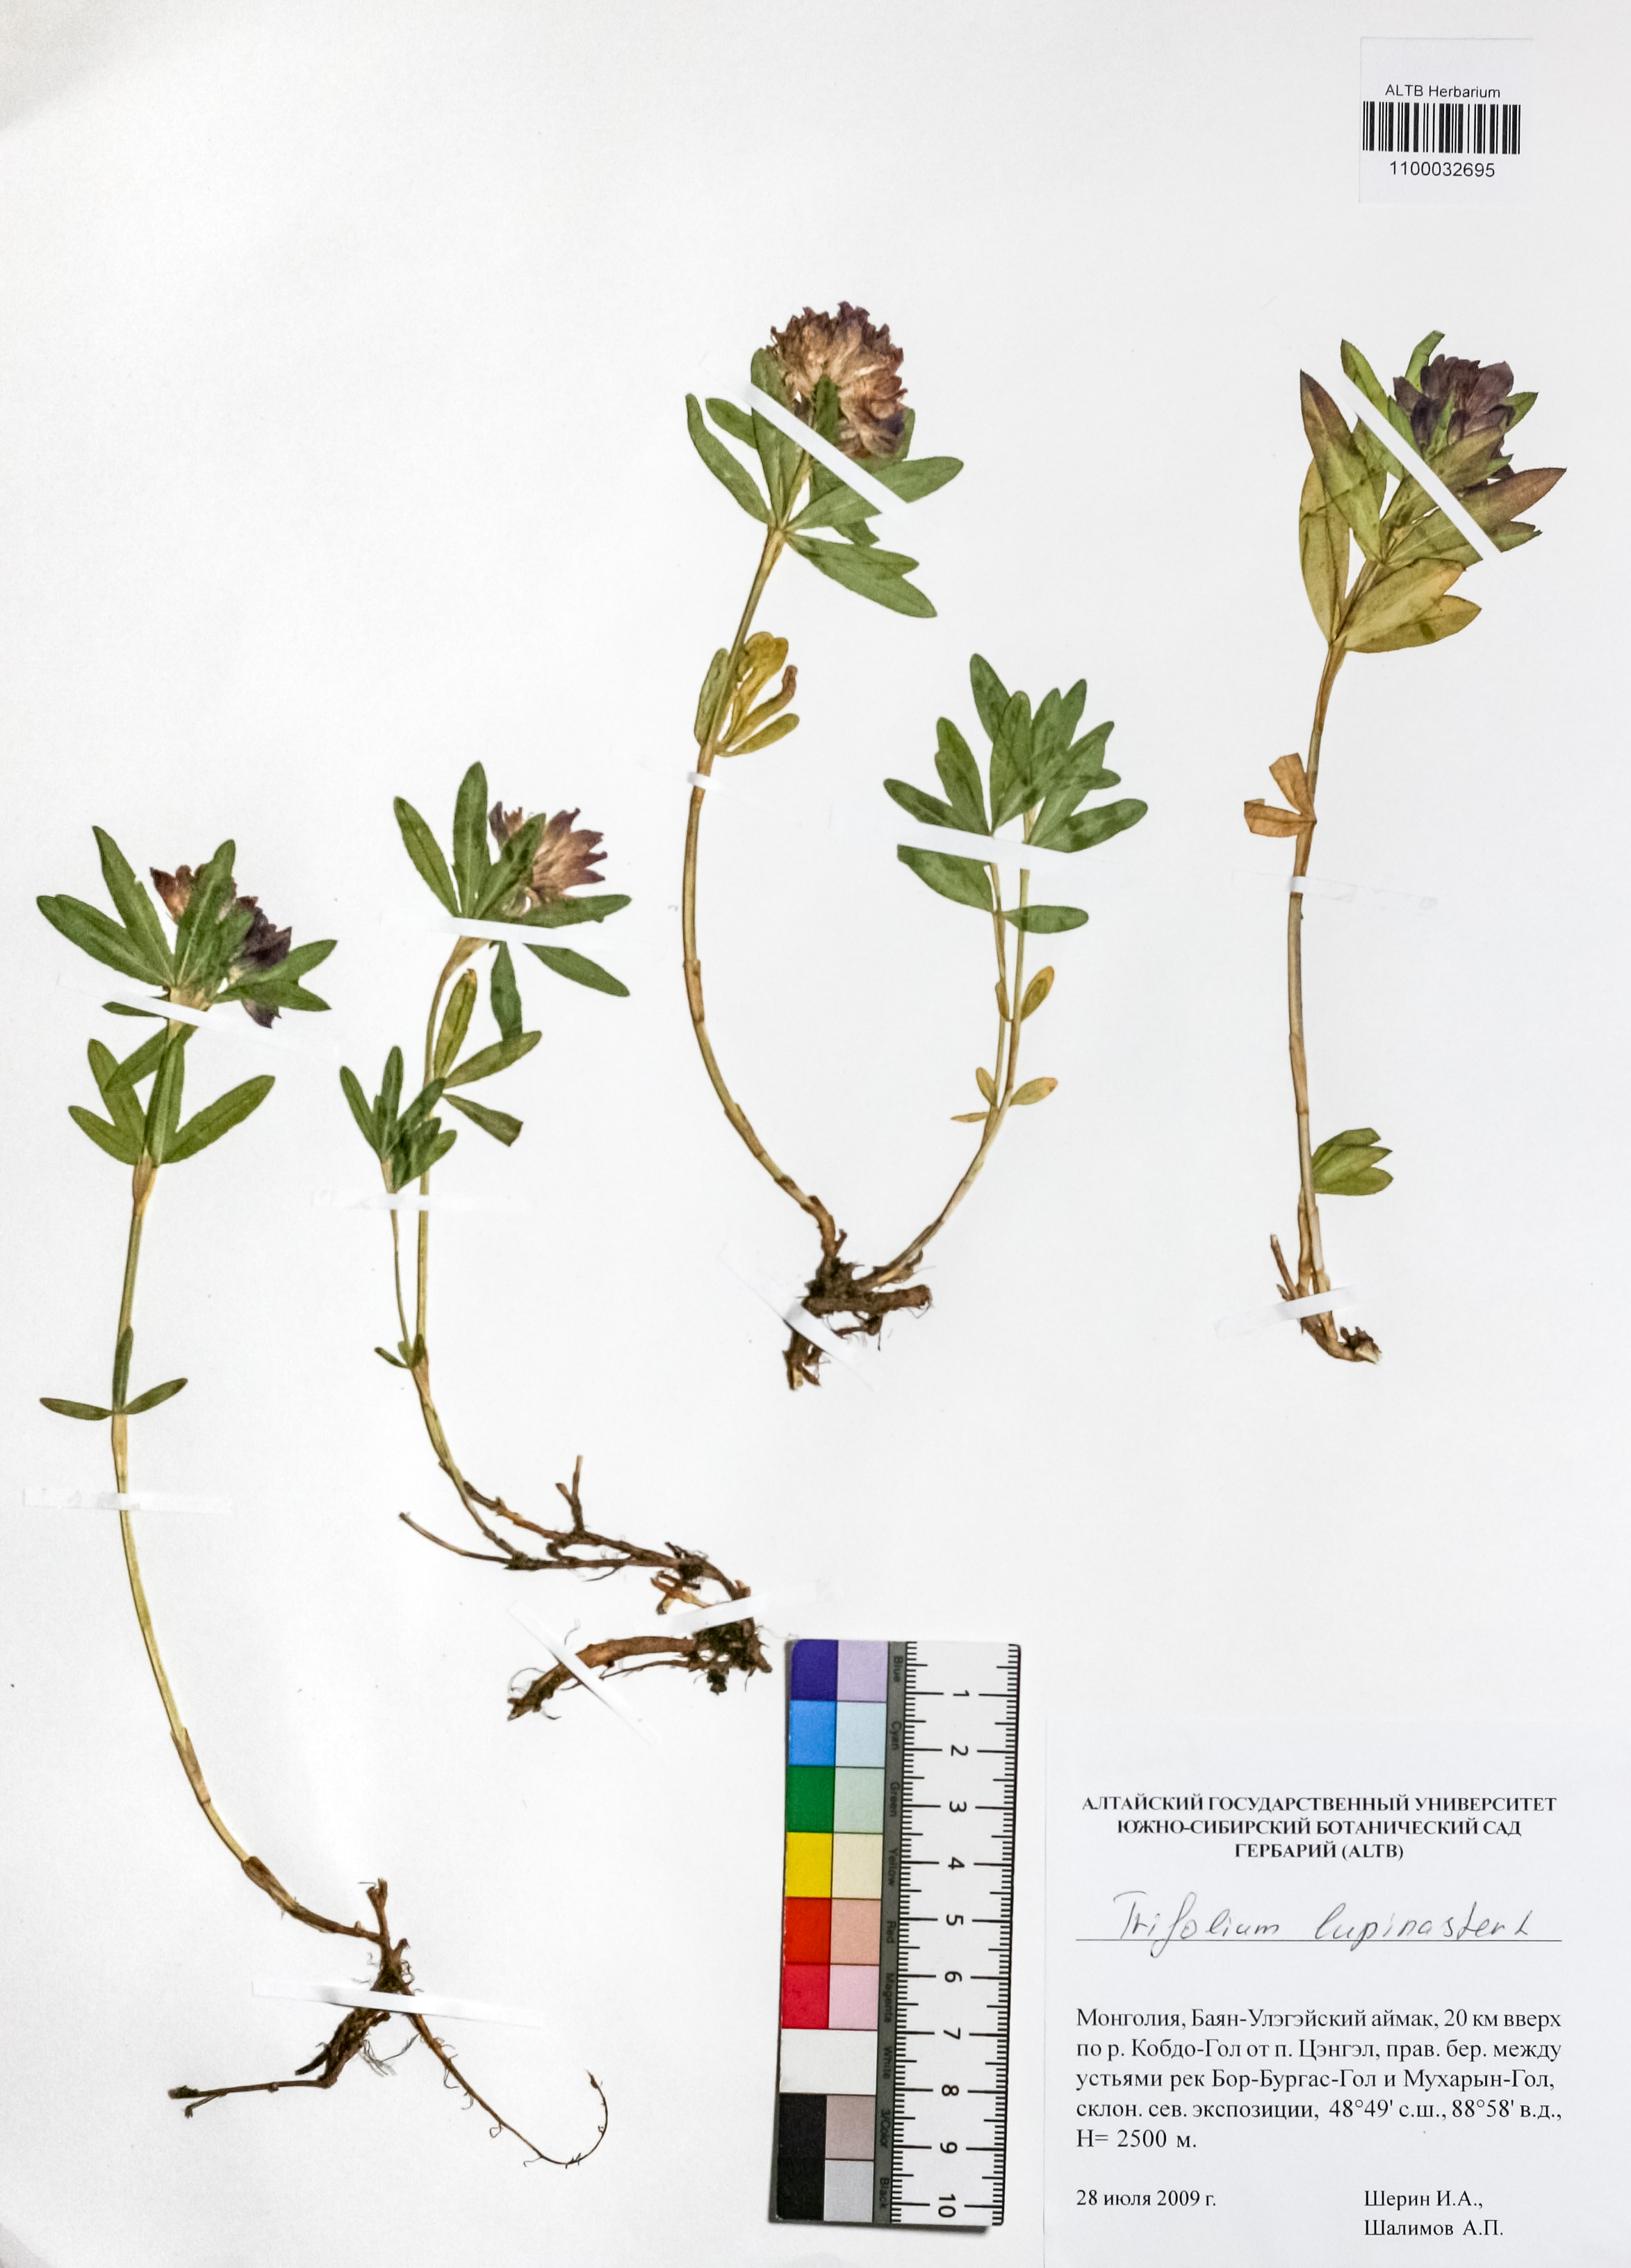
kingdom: Plantae
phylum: Tracheophyta
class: Magnoliopsida
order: Fabales
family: Fabaceae
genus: Trifolium
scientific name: Trifolium lupinaster
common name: Lupine clover
